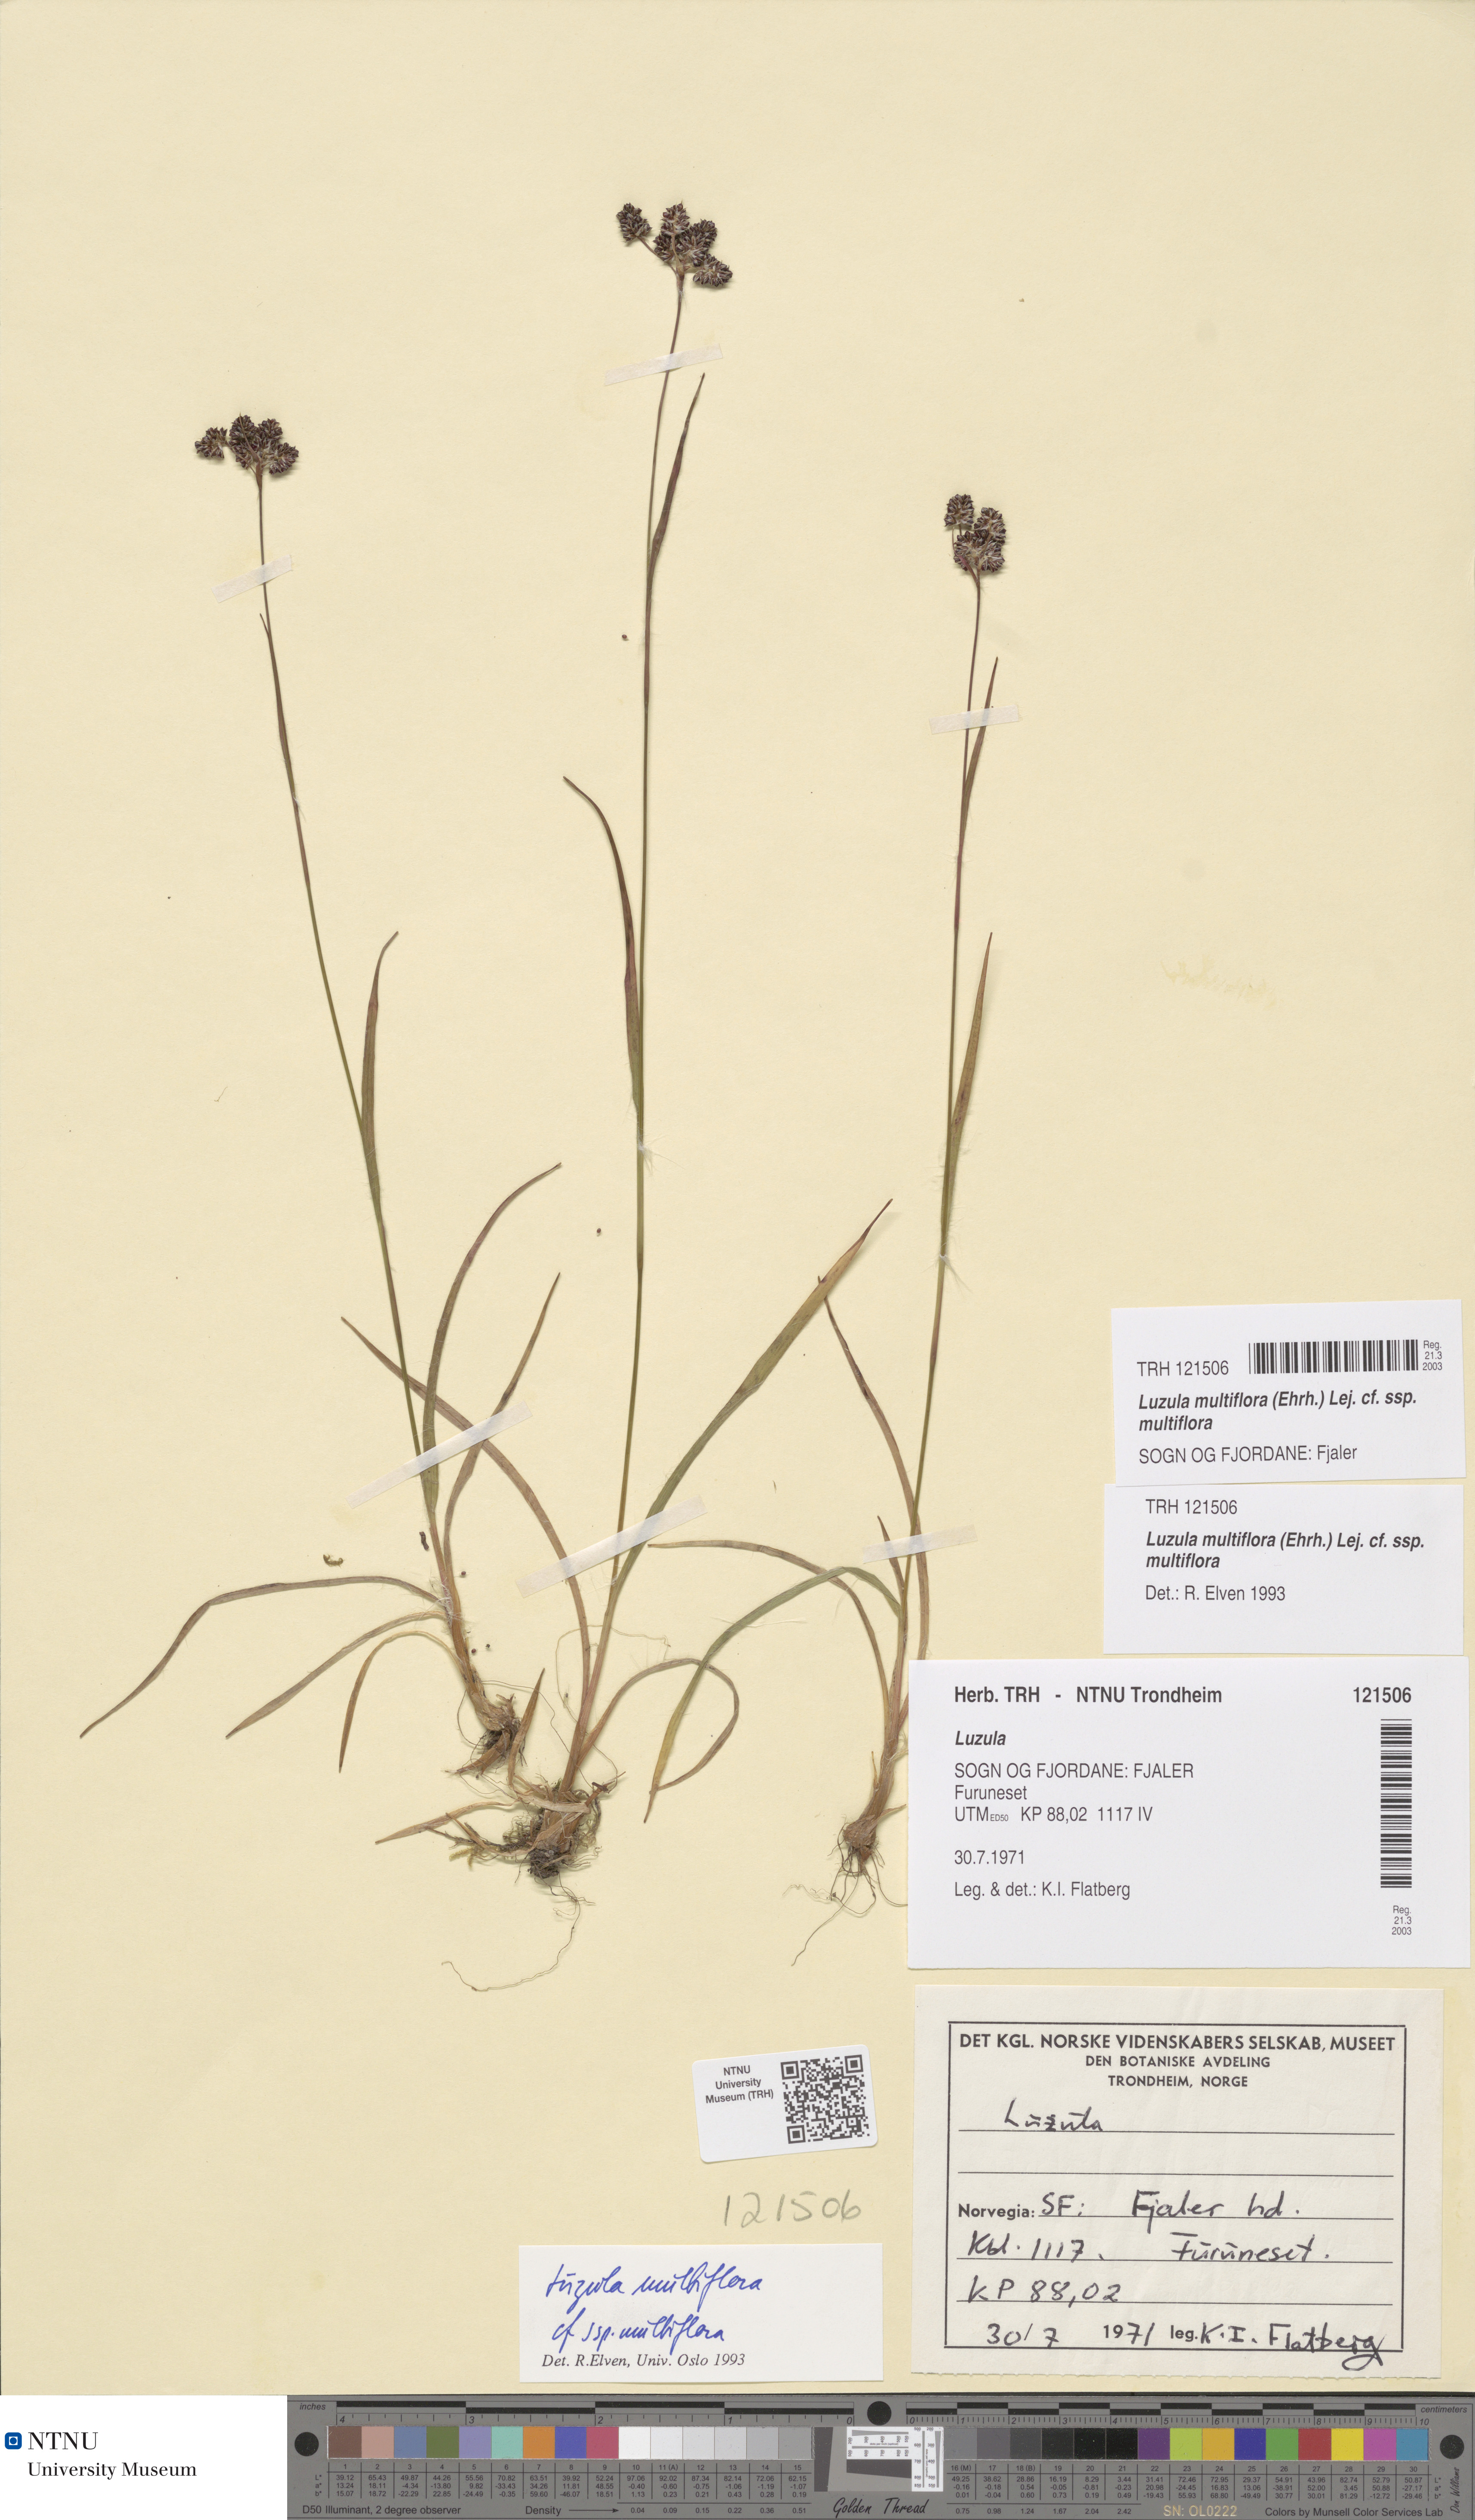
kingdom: Plantae
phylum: Tracheophyta
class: Liliopsida
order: Poales
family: Juncaceae
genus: Luzula
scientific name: Luzula multiflora
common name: Heath wood-rush
